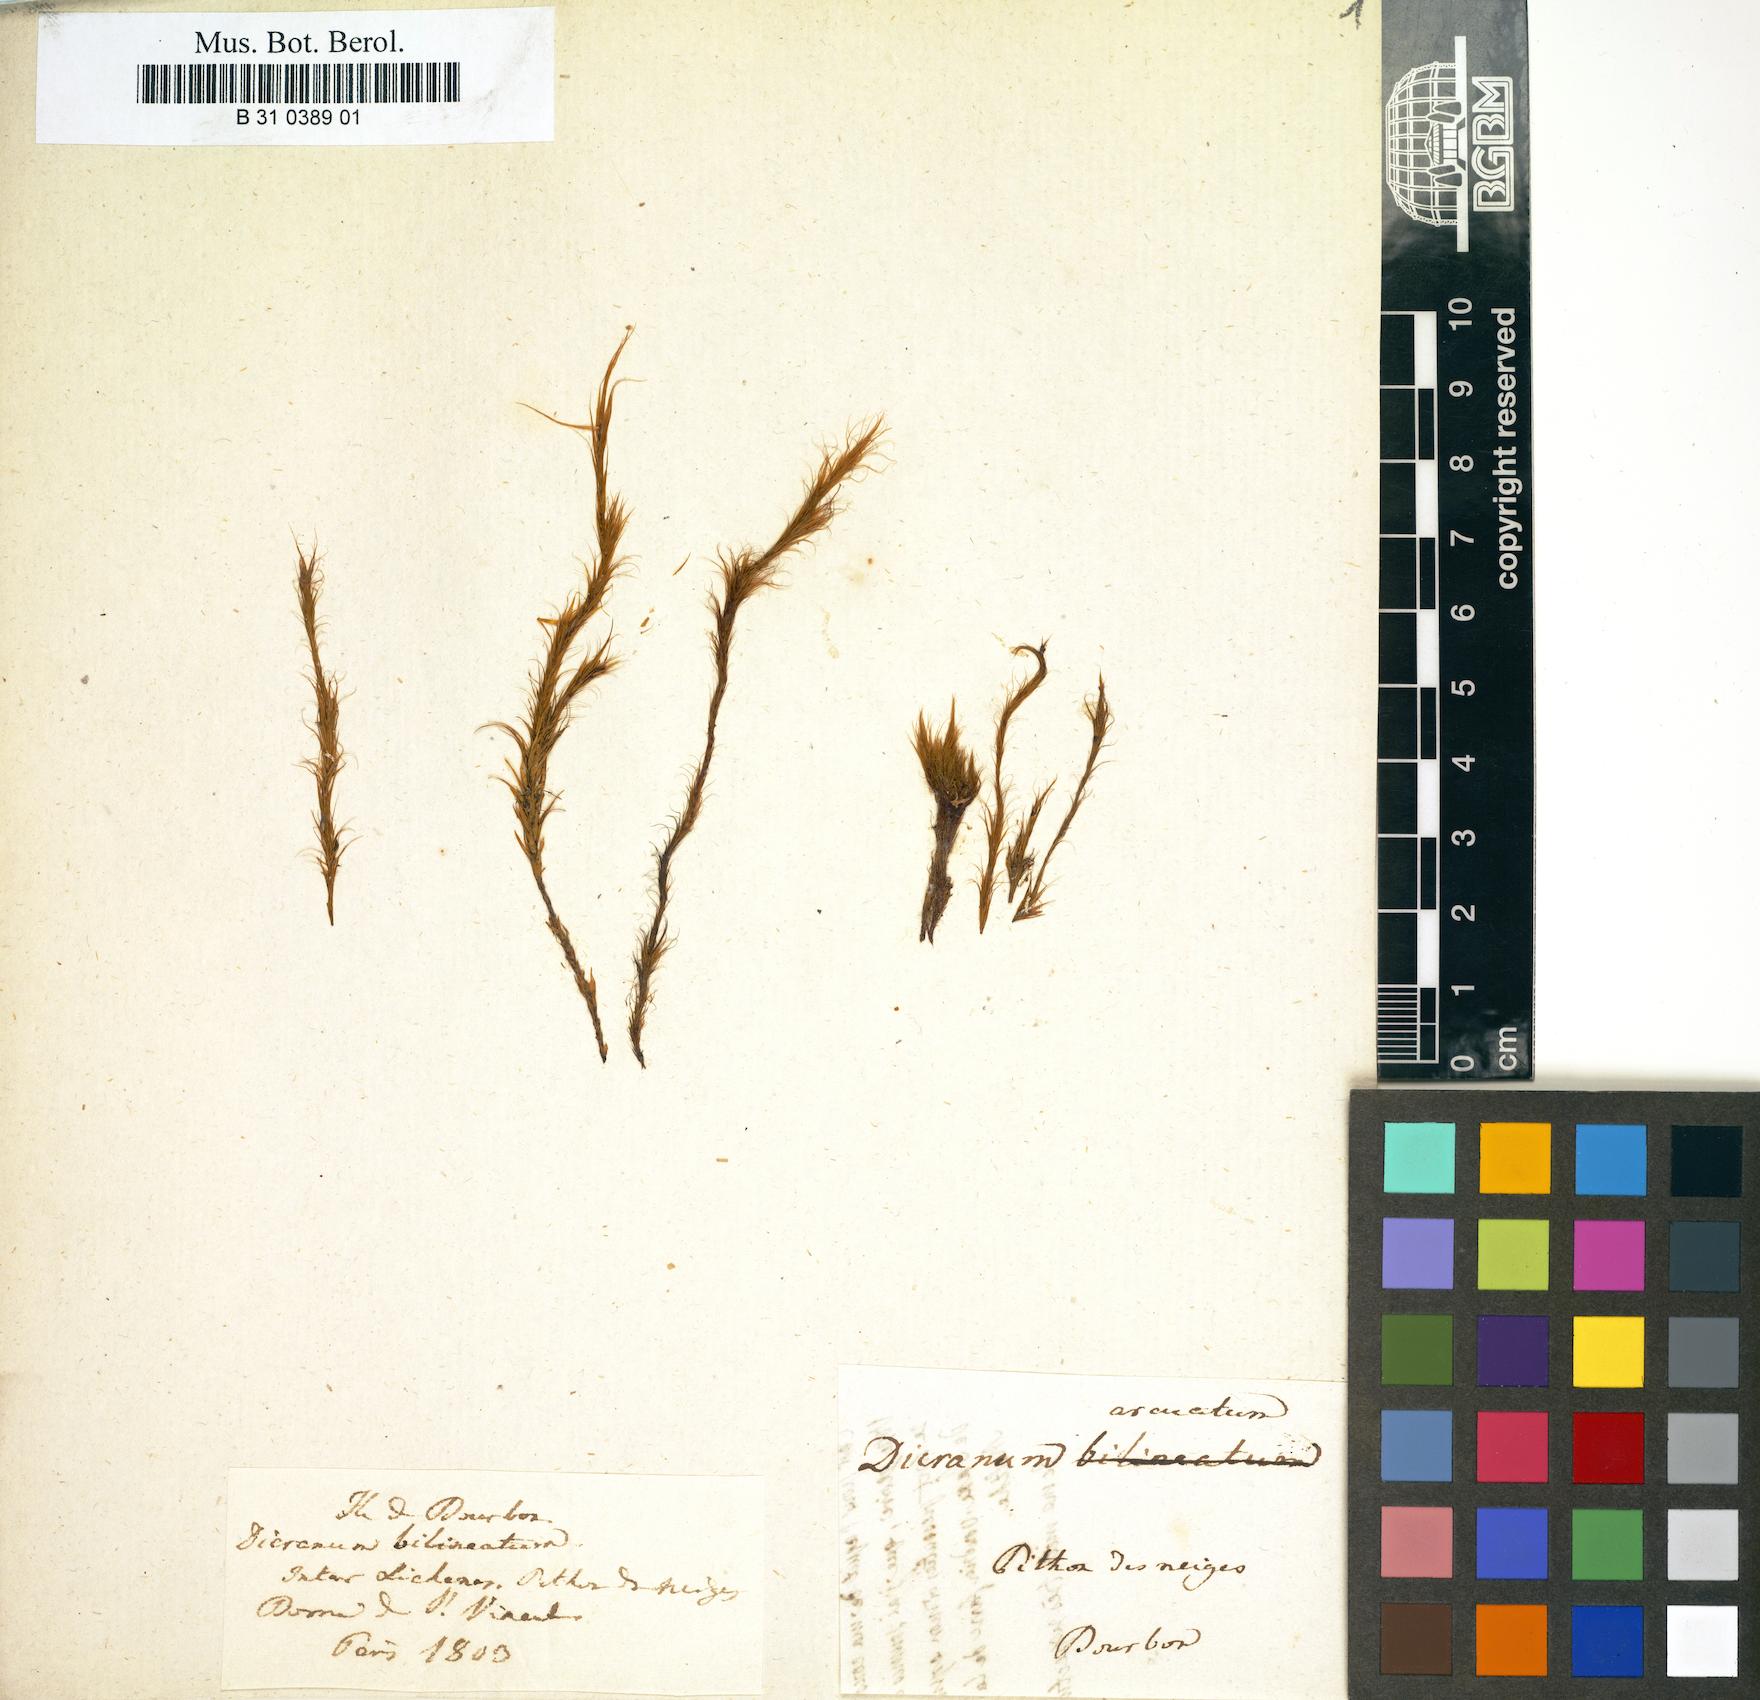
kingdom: Plantae
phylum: Bryophyta
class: Bryopsida
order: Dicranales
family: Dicranaceae
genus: Dicranoloma
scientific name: Dicranoloma dicarpon
